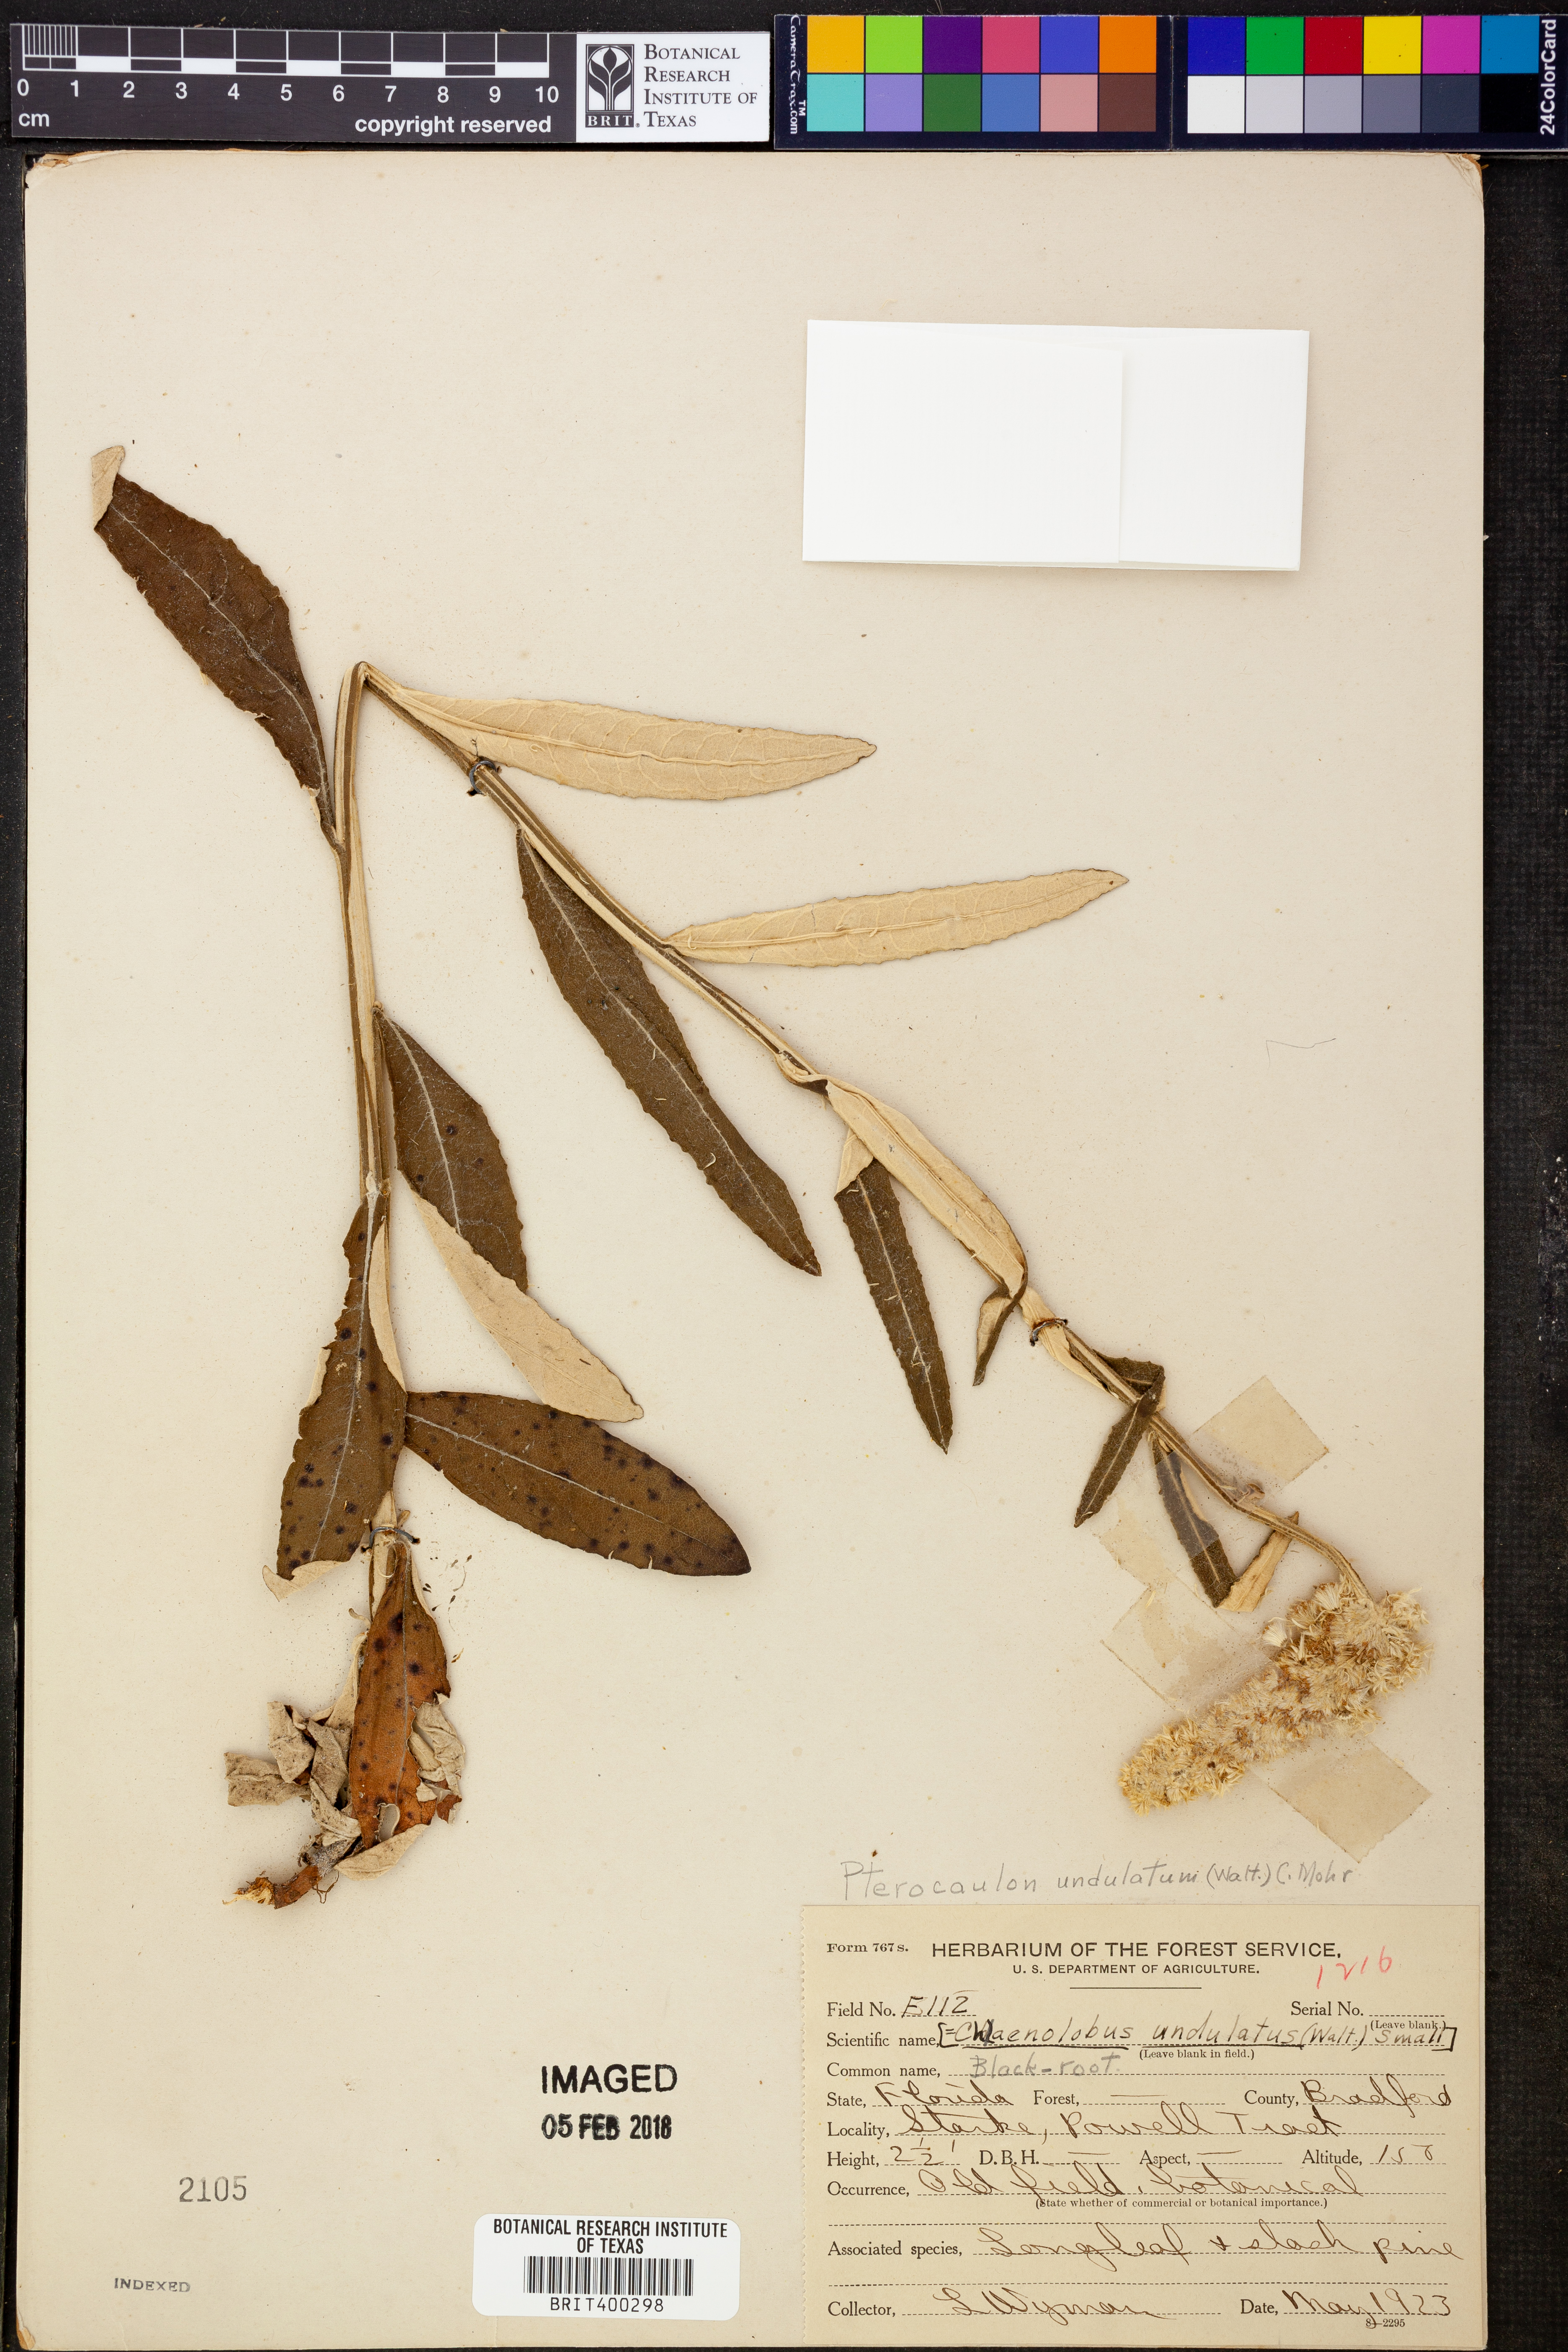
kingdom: Plantae
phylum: Tracheophyta
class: Magnoliopsida
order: Asterales
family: Asteraceae
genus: Pterocaulon
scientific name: Pterocaulon pycnostachyum
